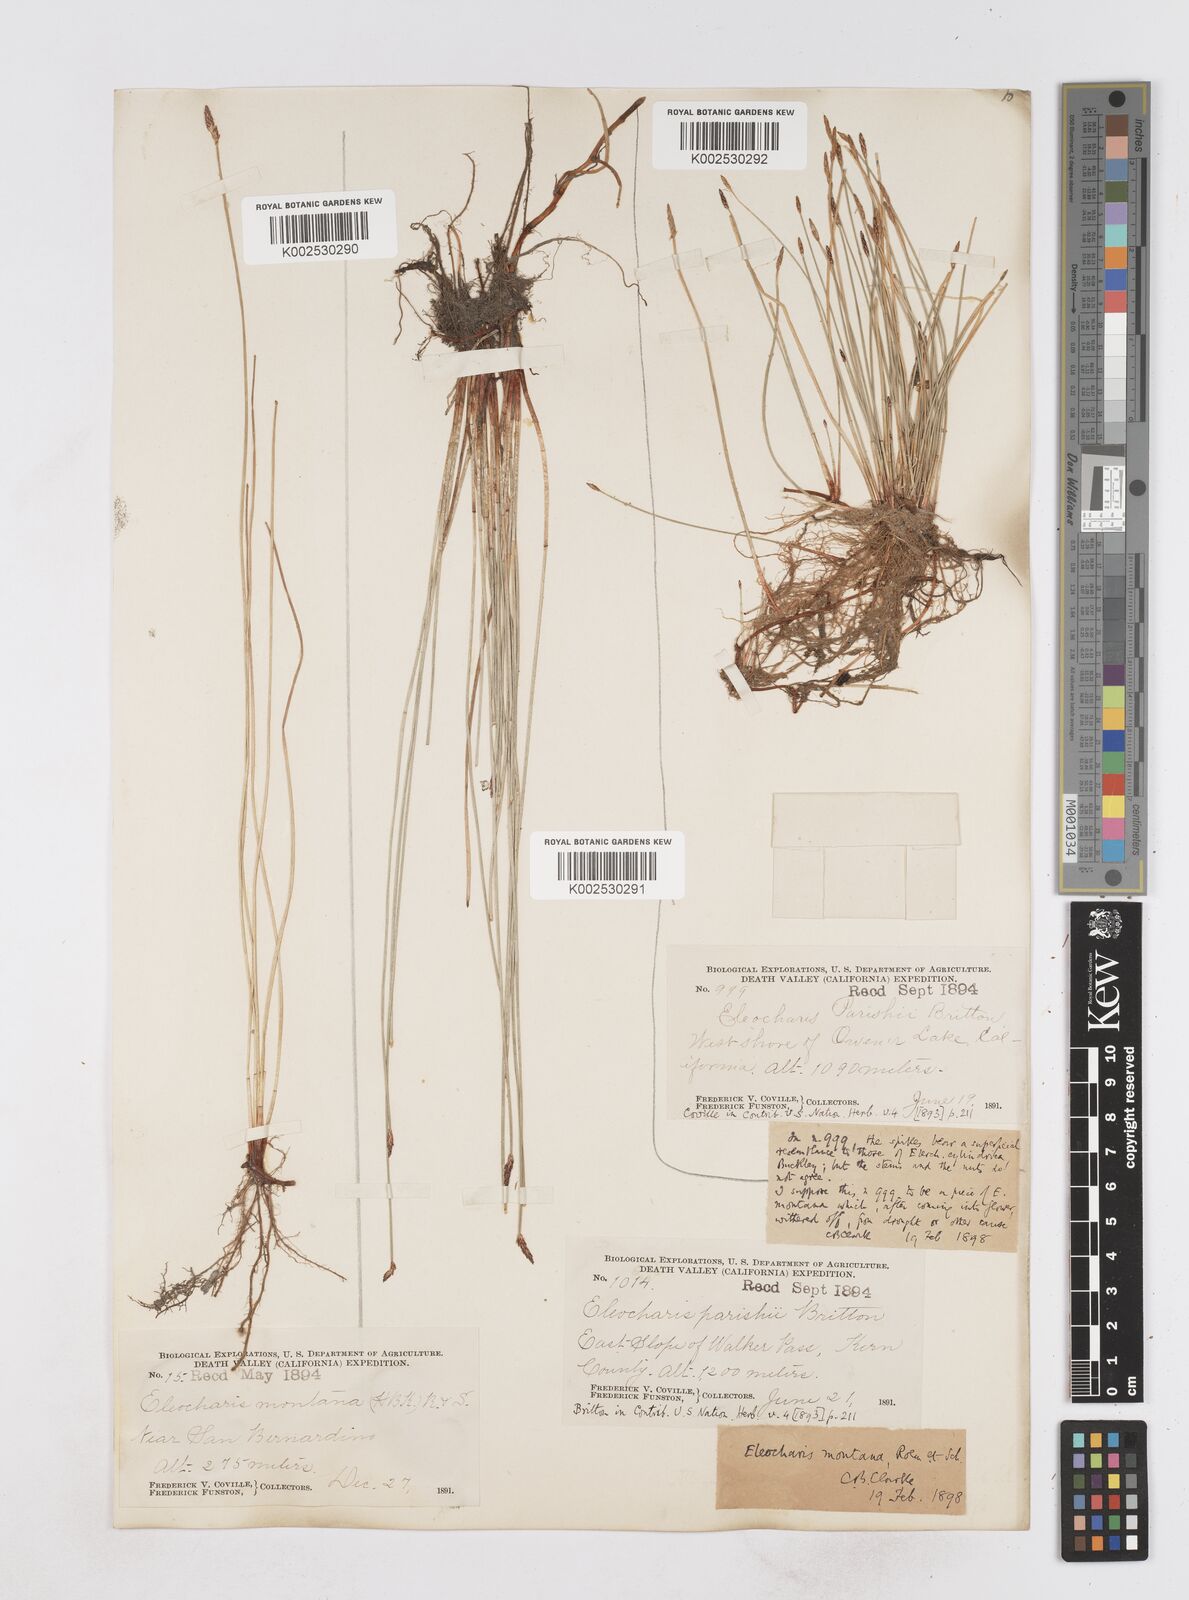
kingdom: Plantae
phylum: Tracheophyta
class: Liliopsida
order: Poales
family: Cyperaceae
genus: Eleocharis
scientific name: Eleocharis montana
